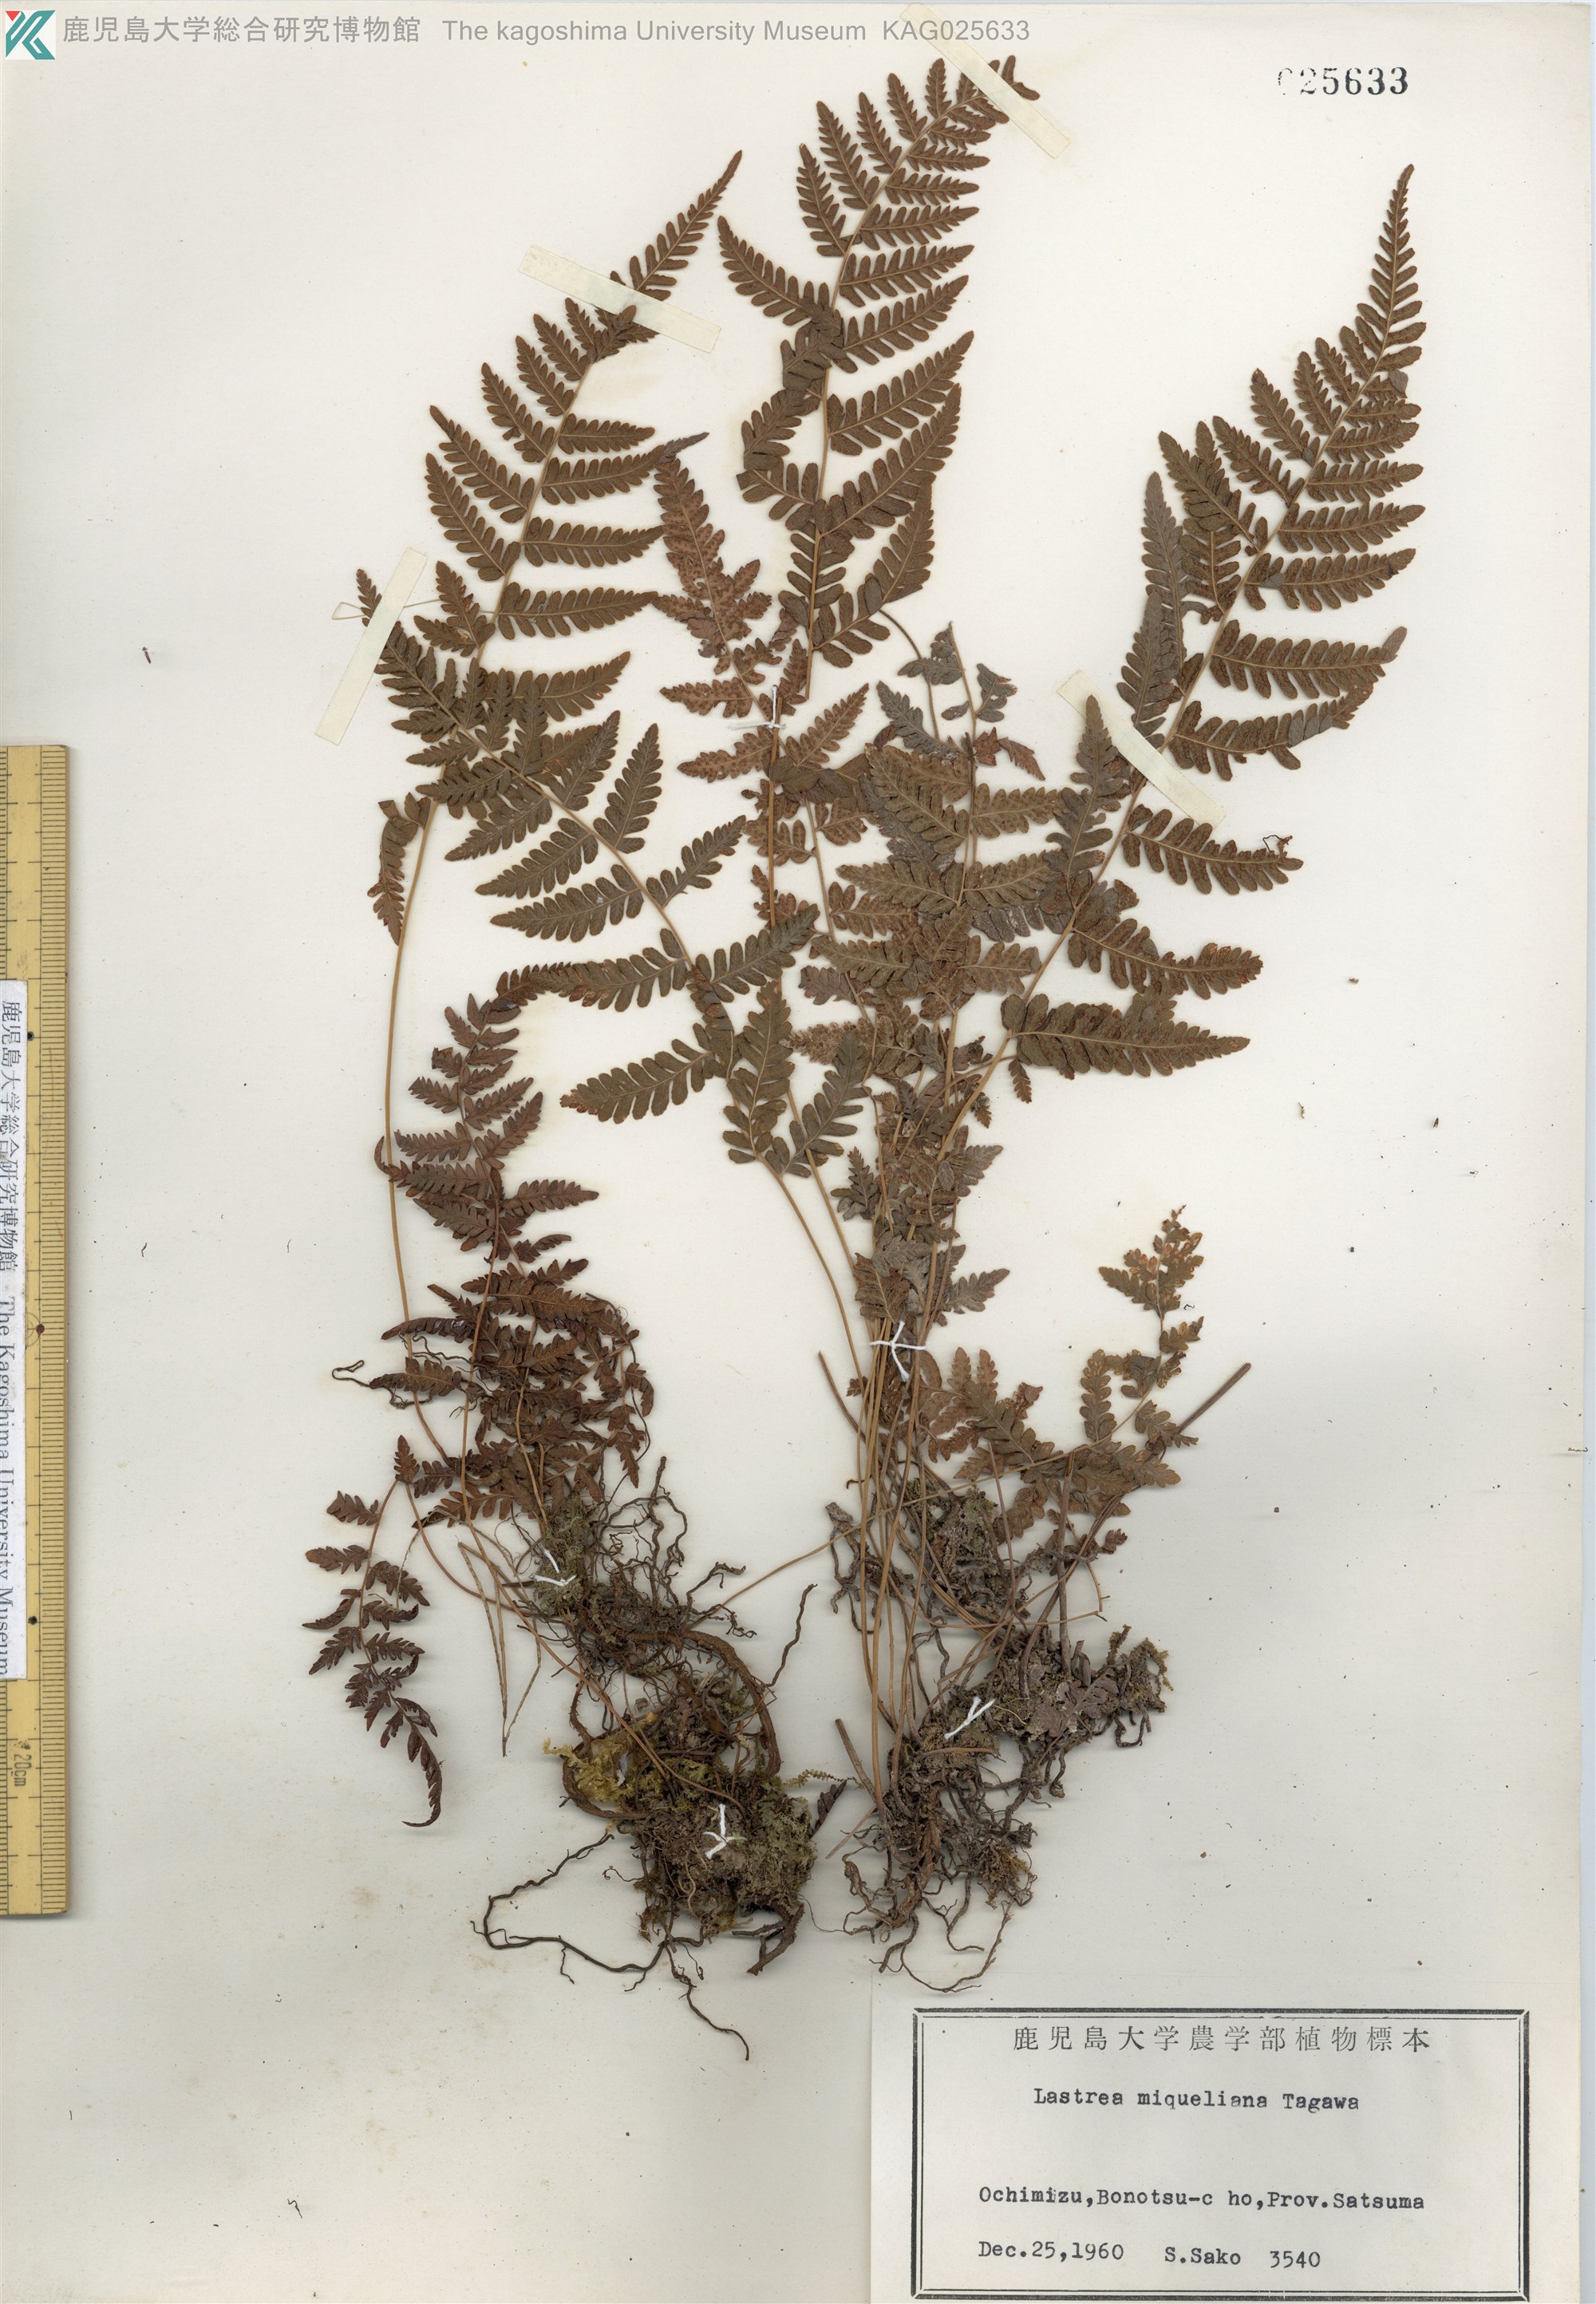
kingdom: Plantae
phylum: Tracheophyta
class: Polypodiopsida
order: Polypodiales
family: Thelypteridaceae
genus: Amauropelta
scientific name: Amauropelta angustifrons
